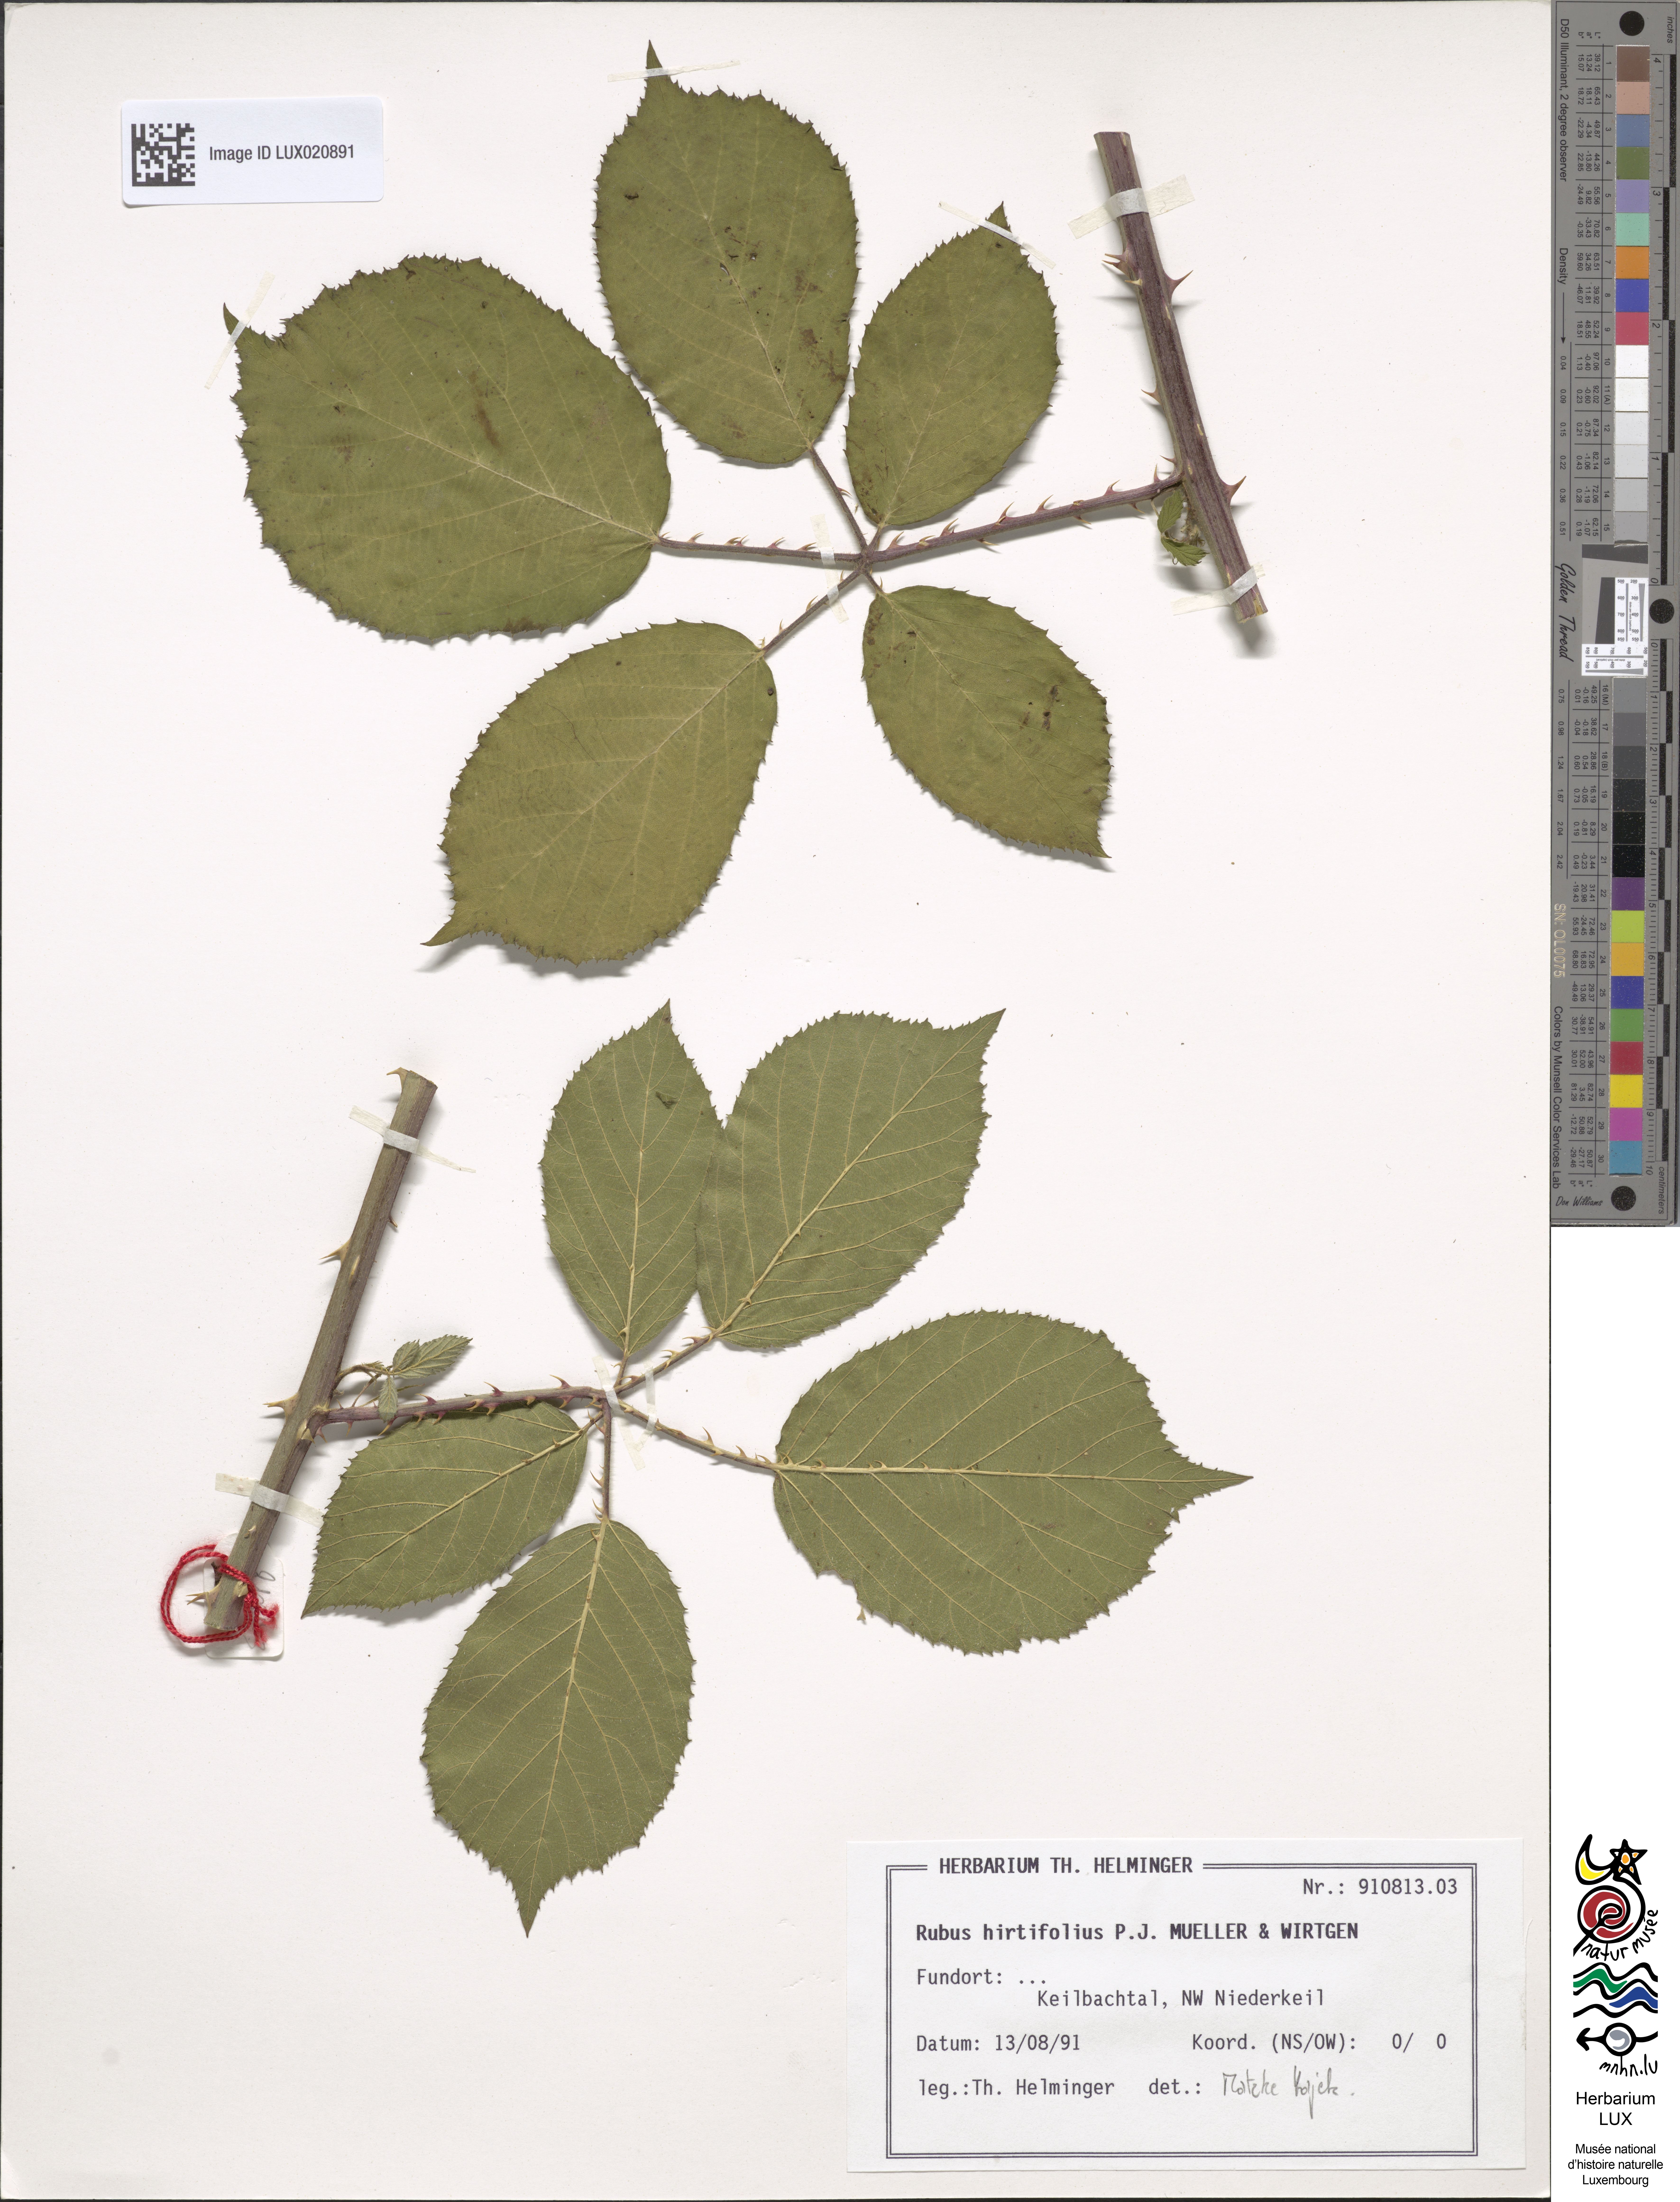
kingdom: Plantae
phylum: Tracheophyta
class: Magnoliopsida
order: Rosales
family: Rosaceae
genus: Rubus
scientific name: Rubus hirtifolius
